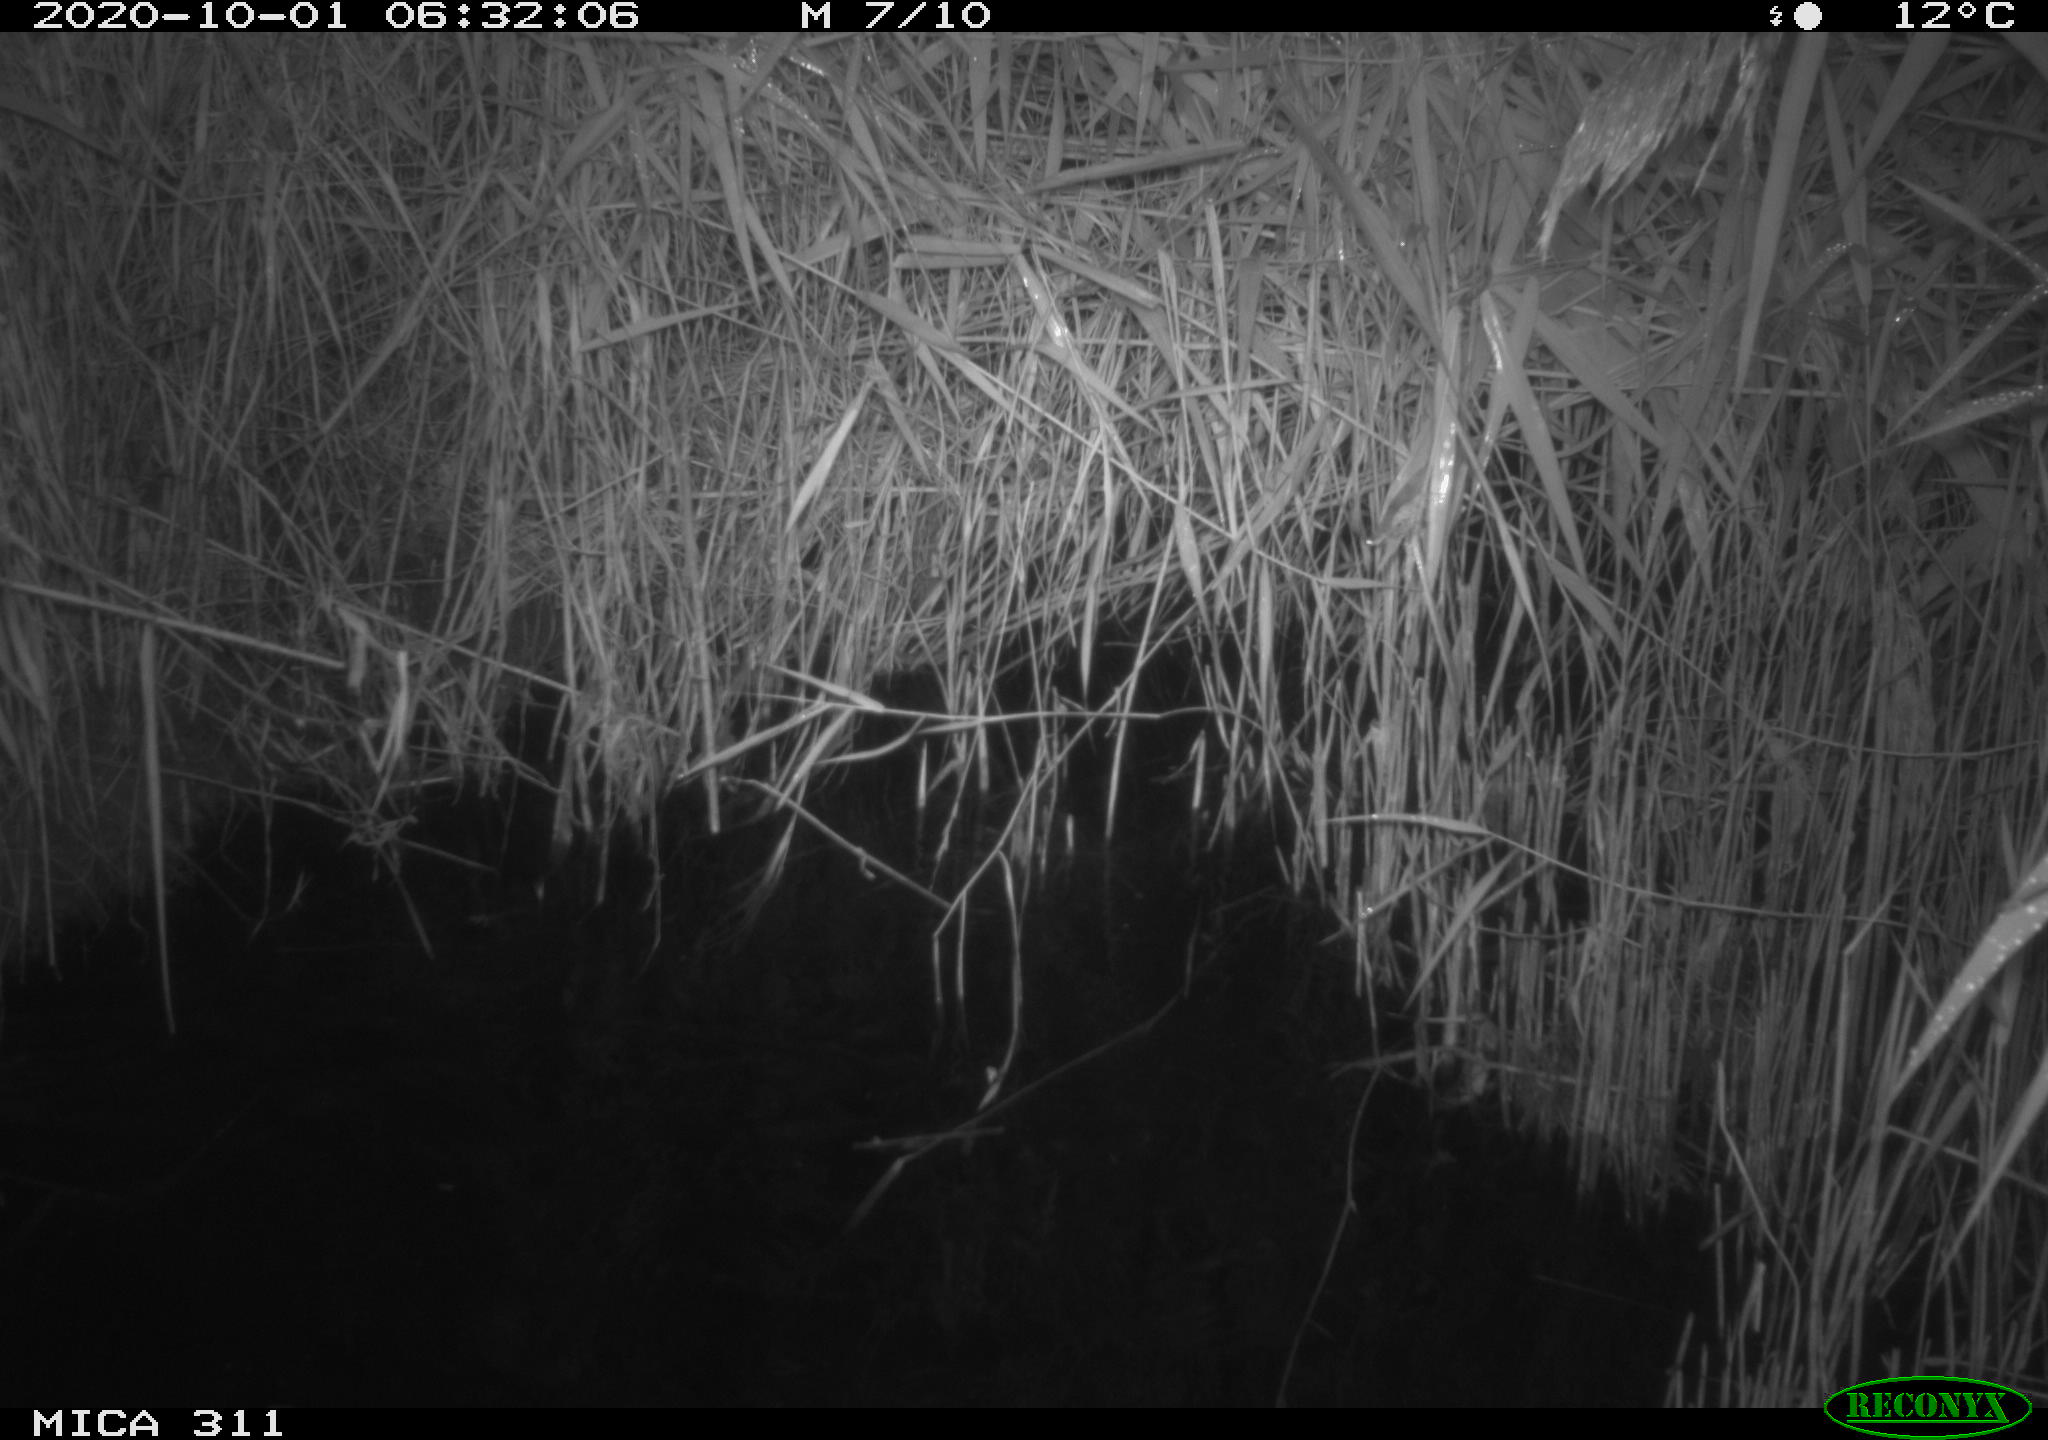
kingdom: Animalia
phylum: Chordata
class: Mammalia
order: Rodentia
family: Muridae
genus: Rattus
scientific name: Rattus norvegicus
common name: Brown rat
